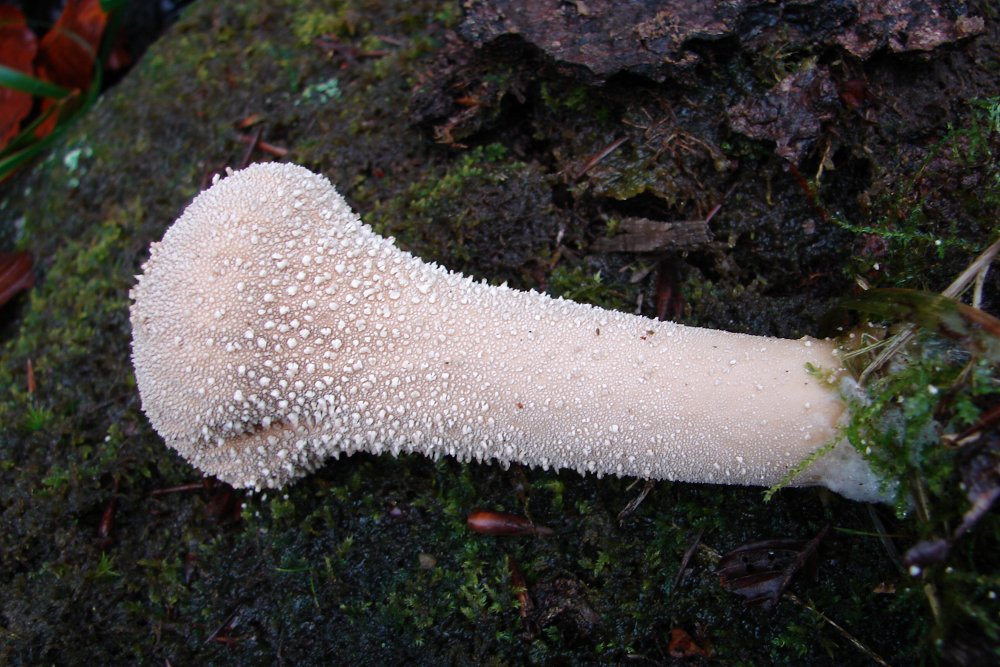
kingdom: Fungi
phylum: Basidiomycota
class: Agaricomycetes
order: Agaricales
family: Lycoperdaceae
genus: Lycoperdon
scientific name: Lycoperdon excipuliforme
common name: højstokket støvbold
